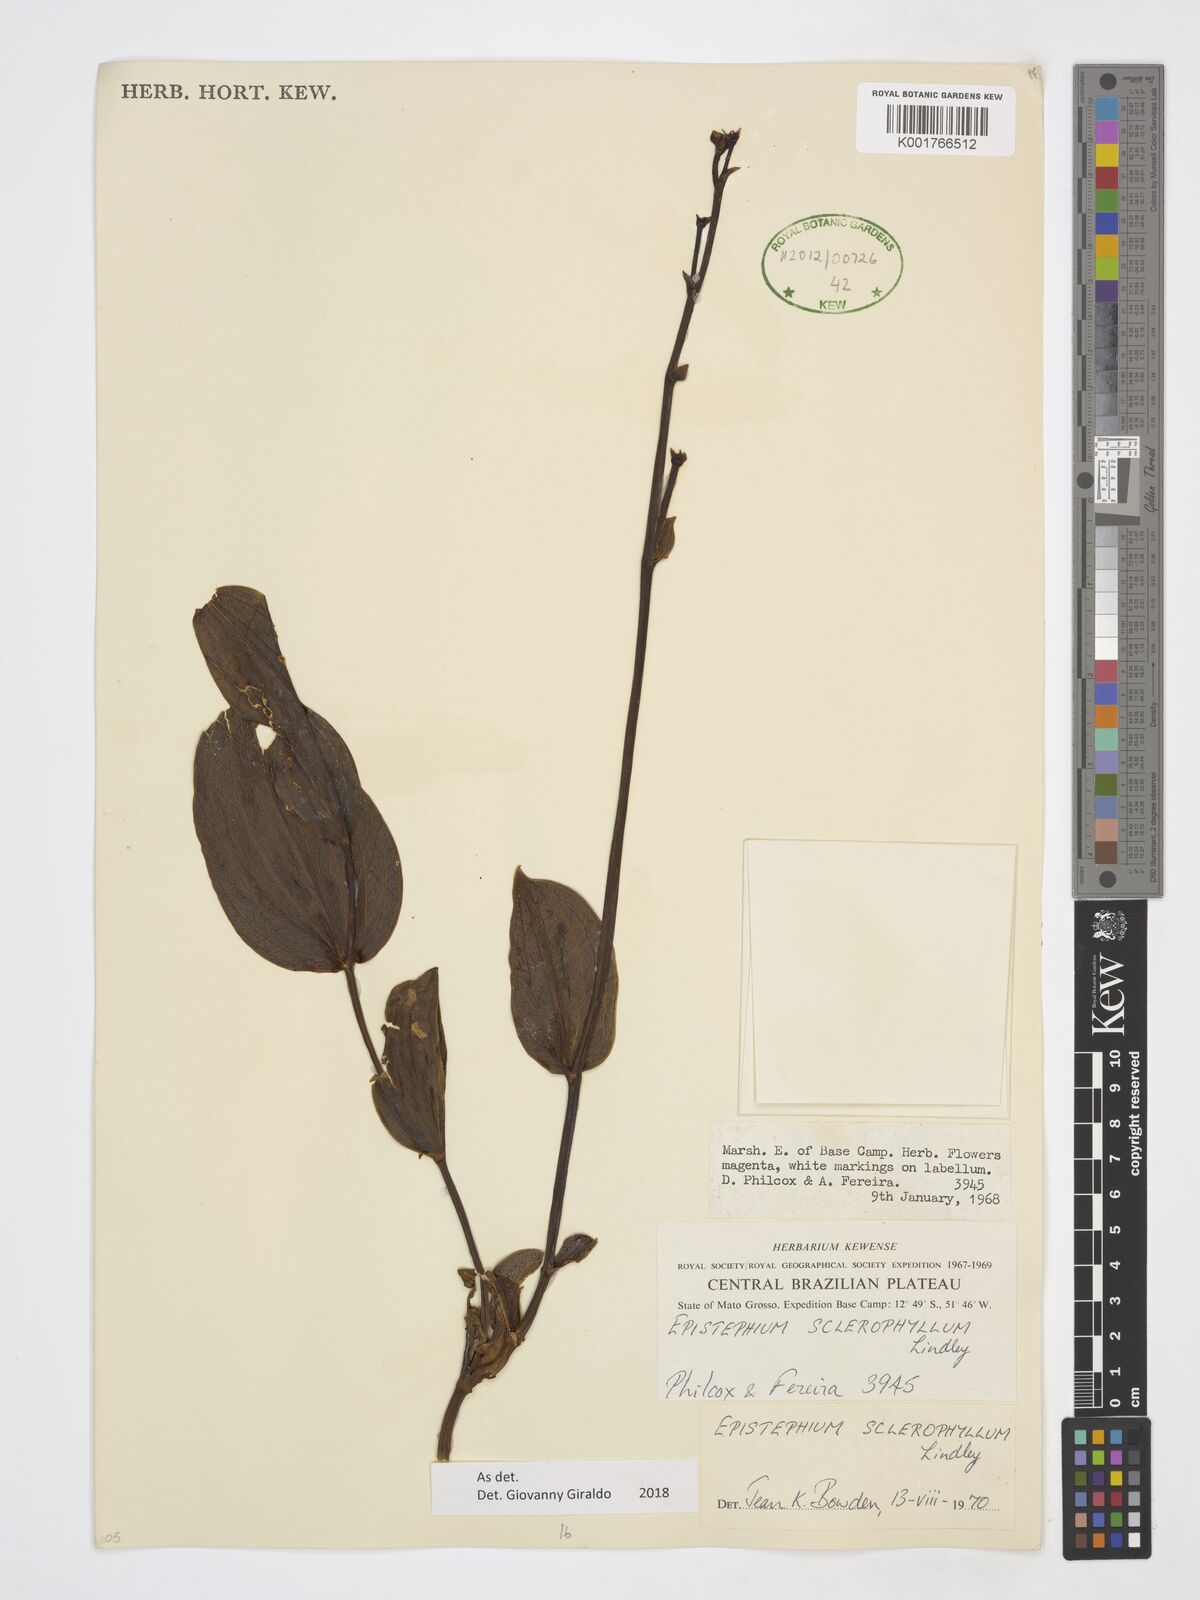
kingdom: Plantae
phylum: Tracheophyta
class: Liliopsida
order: Asparagales
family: Orchidaceae
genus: Epistephium
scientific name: Epistephium sclerophyllum
